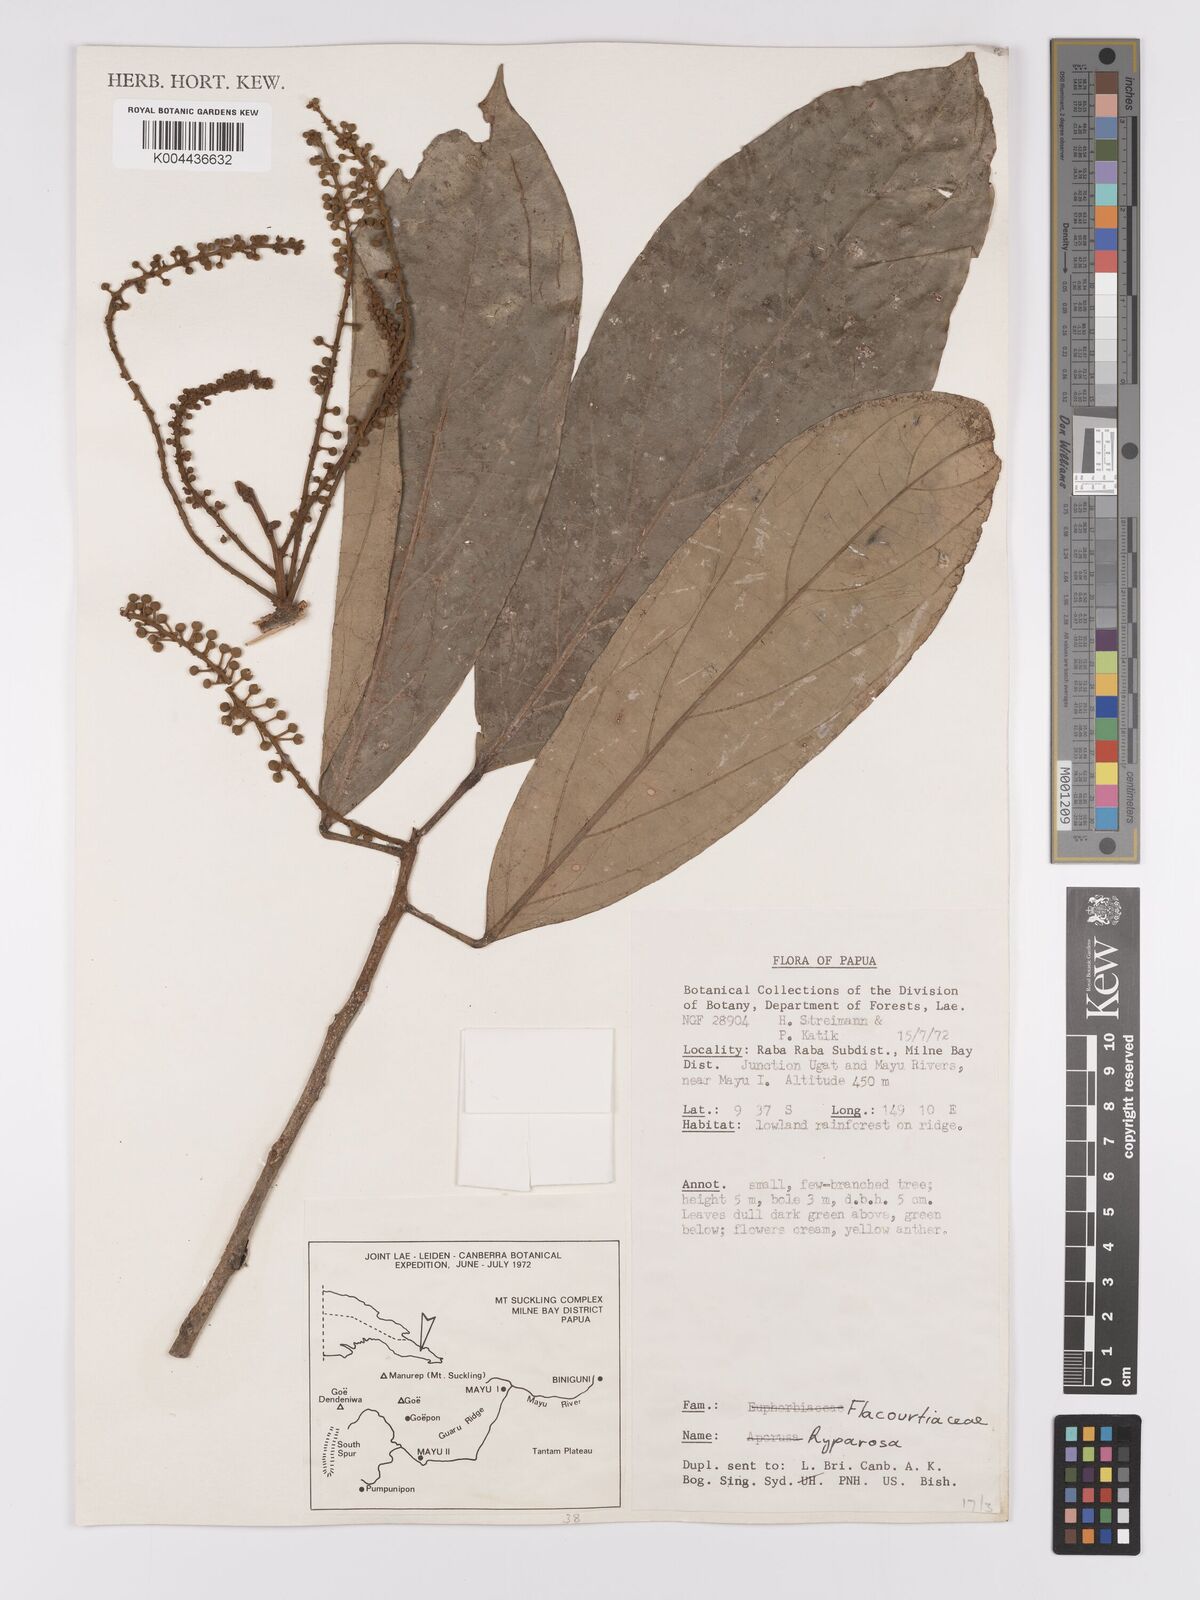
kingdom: Plantae
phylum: Tracheophyta
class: Magnoliopsida
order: Malpighiales
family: Achariaceae
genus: Ryparosa
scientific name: Ryparosa
